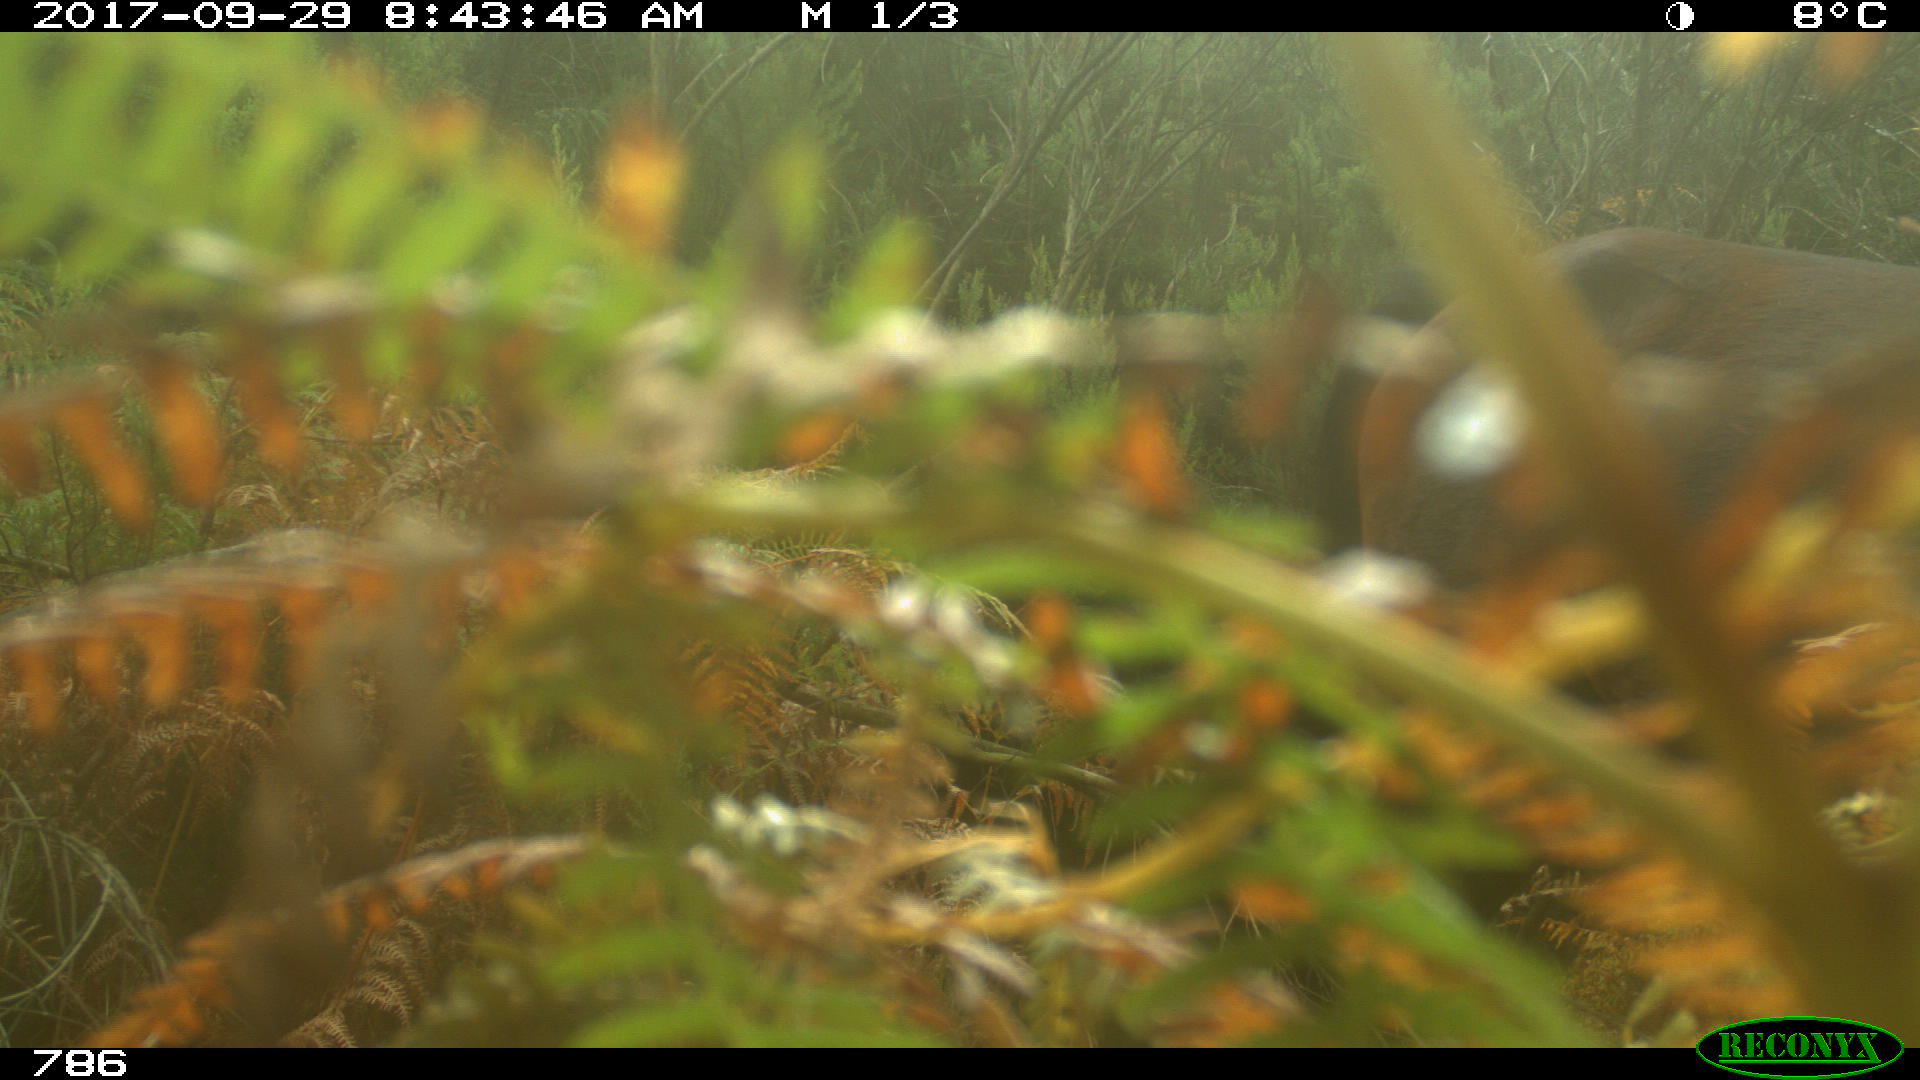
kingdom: Animalia
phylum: Chordata
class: Mammalia
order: Perissodactyla
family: Equidae
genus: Equus
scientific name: Equus caballus
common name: Horse
